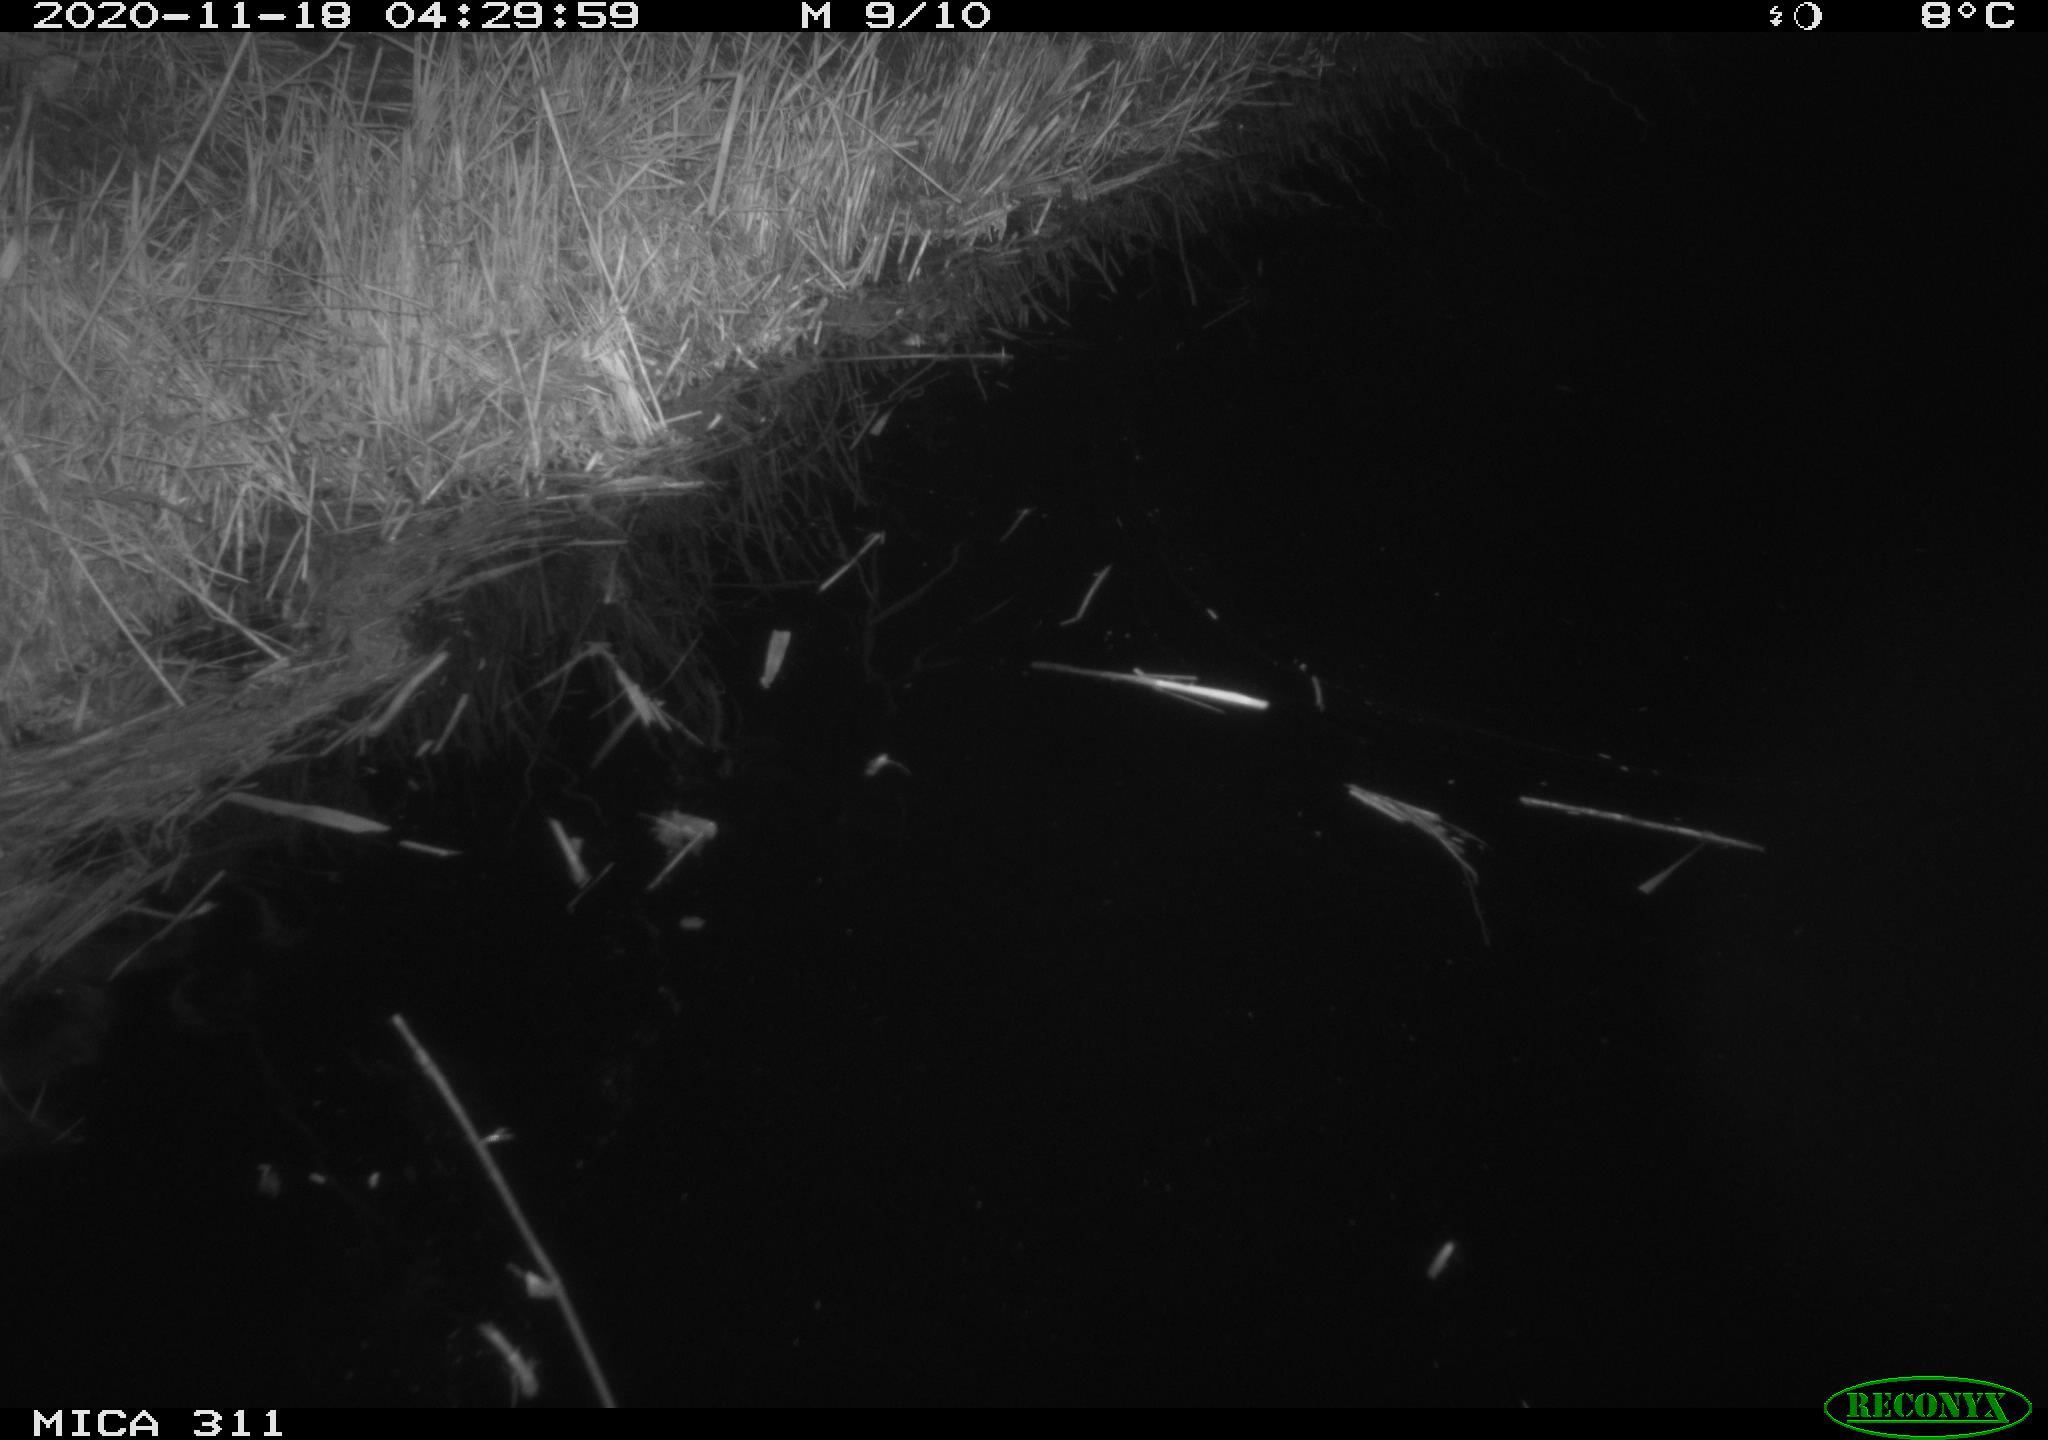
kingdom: Animalia
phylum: Chordata
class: Mammalia
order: Rodentia
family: Muridae
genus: Rattus
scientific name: Rattus norvegicus
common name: Brown rat
